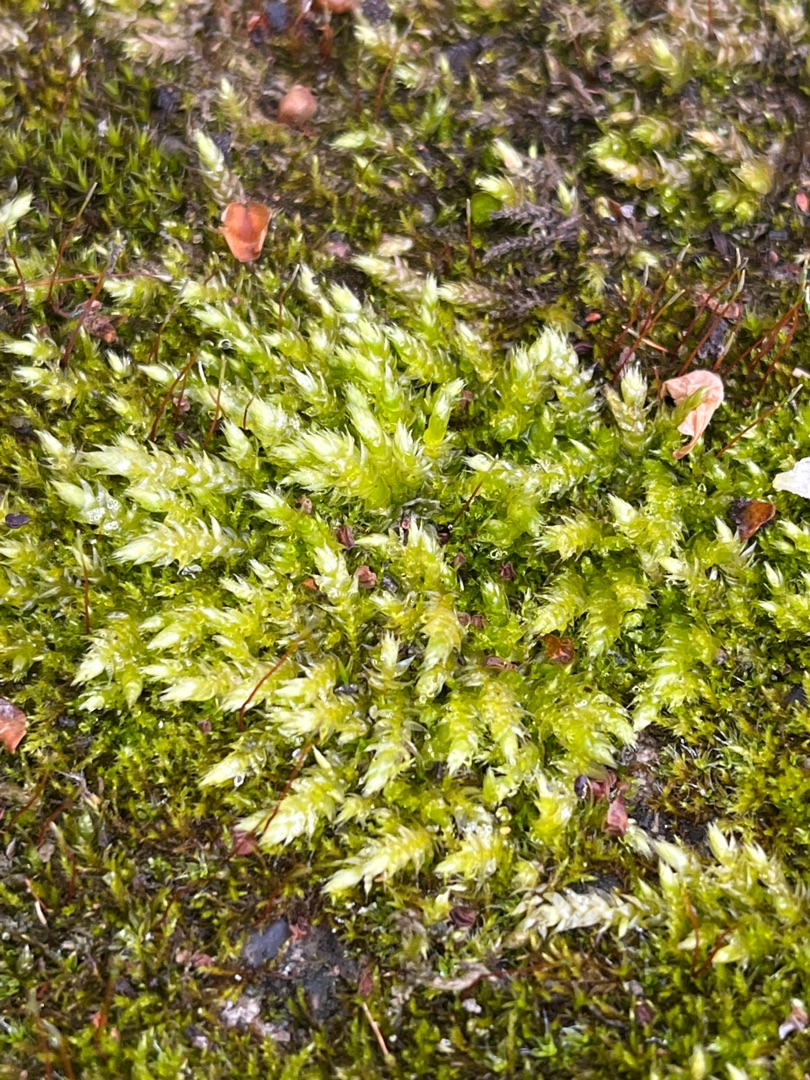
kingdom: Plantae
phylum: Bryophyta
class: Bryopsida
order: Hypnales
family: Brachytheciaceae
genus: Brachythecium
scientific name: Brachythecium rutabulum
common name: Almindelig kortkapsel
